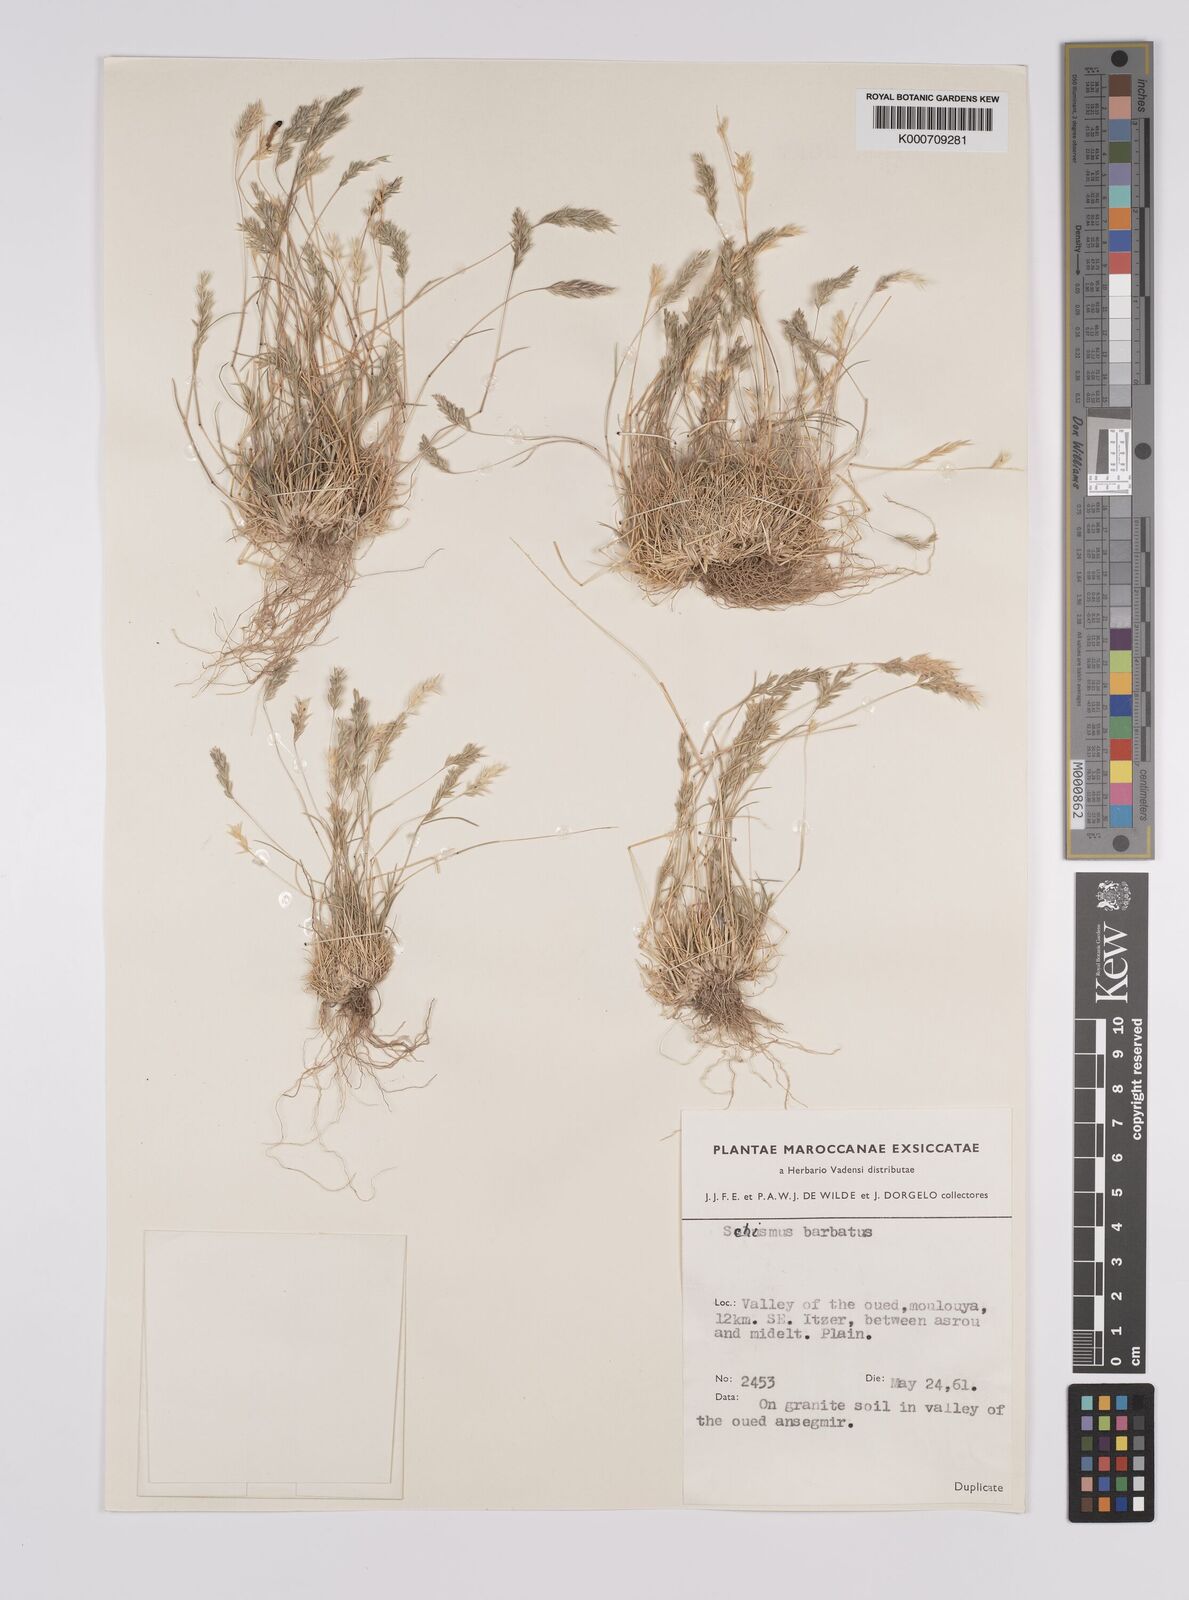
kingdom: Plantae
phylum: Tracheophyta
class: Liliopsida
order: Poales
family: Poaceae
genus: Schismus
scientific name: Schismus barbatus
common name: Kelch-grass
